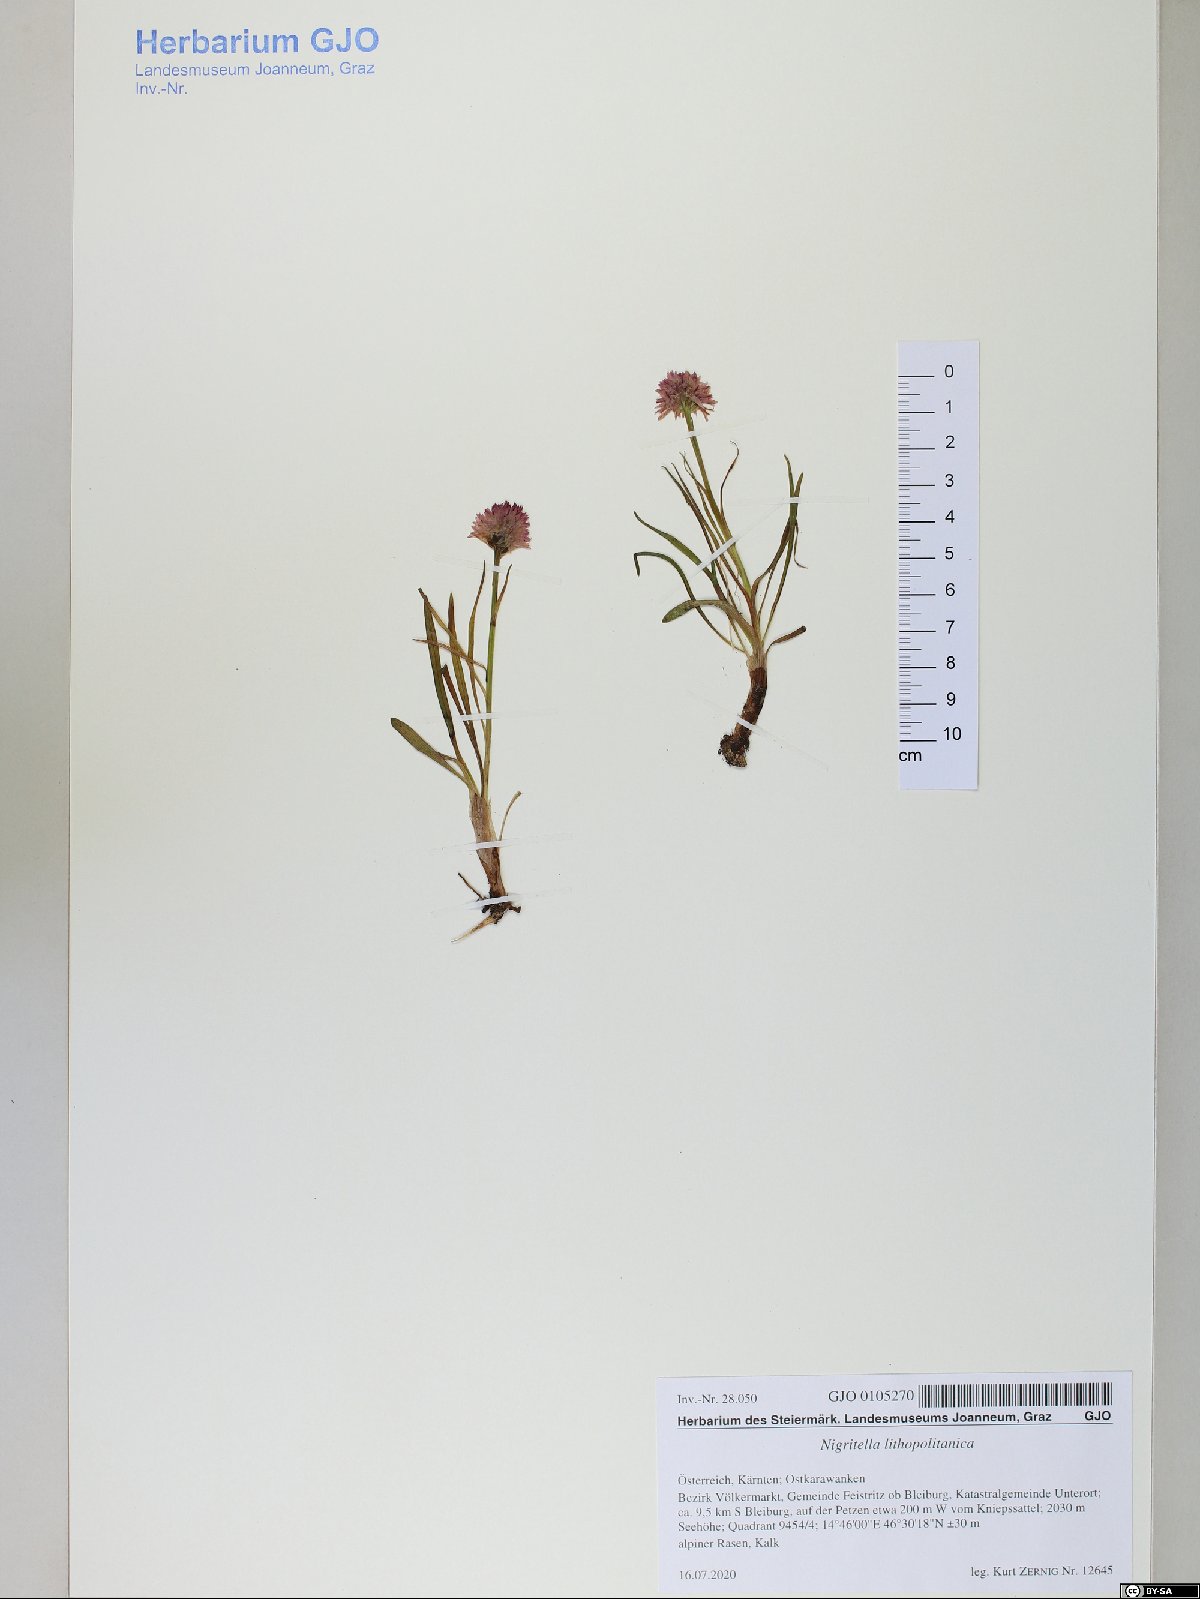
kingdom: Plantae
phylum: Tracheophyta
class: Liliopsida
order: Asparagales
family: Orchidaceae
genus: Gymnadenia
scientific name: Gymnadenia lithopolitanica
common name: Austrian gymnadenia
